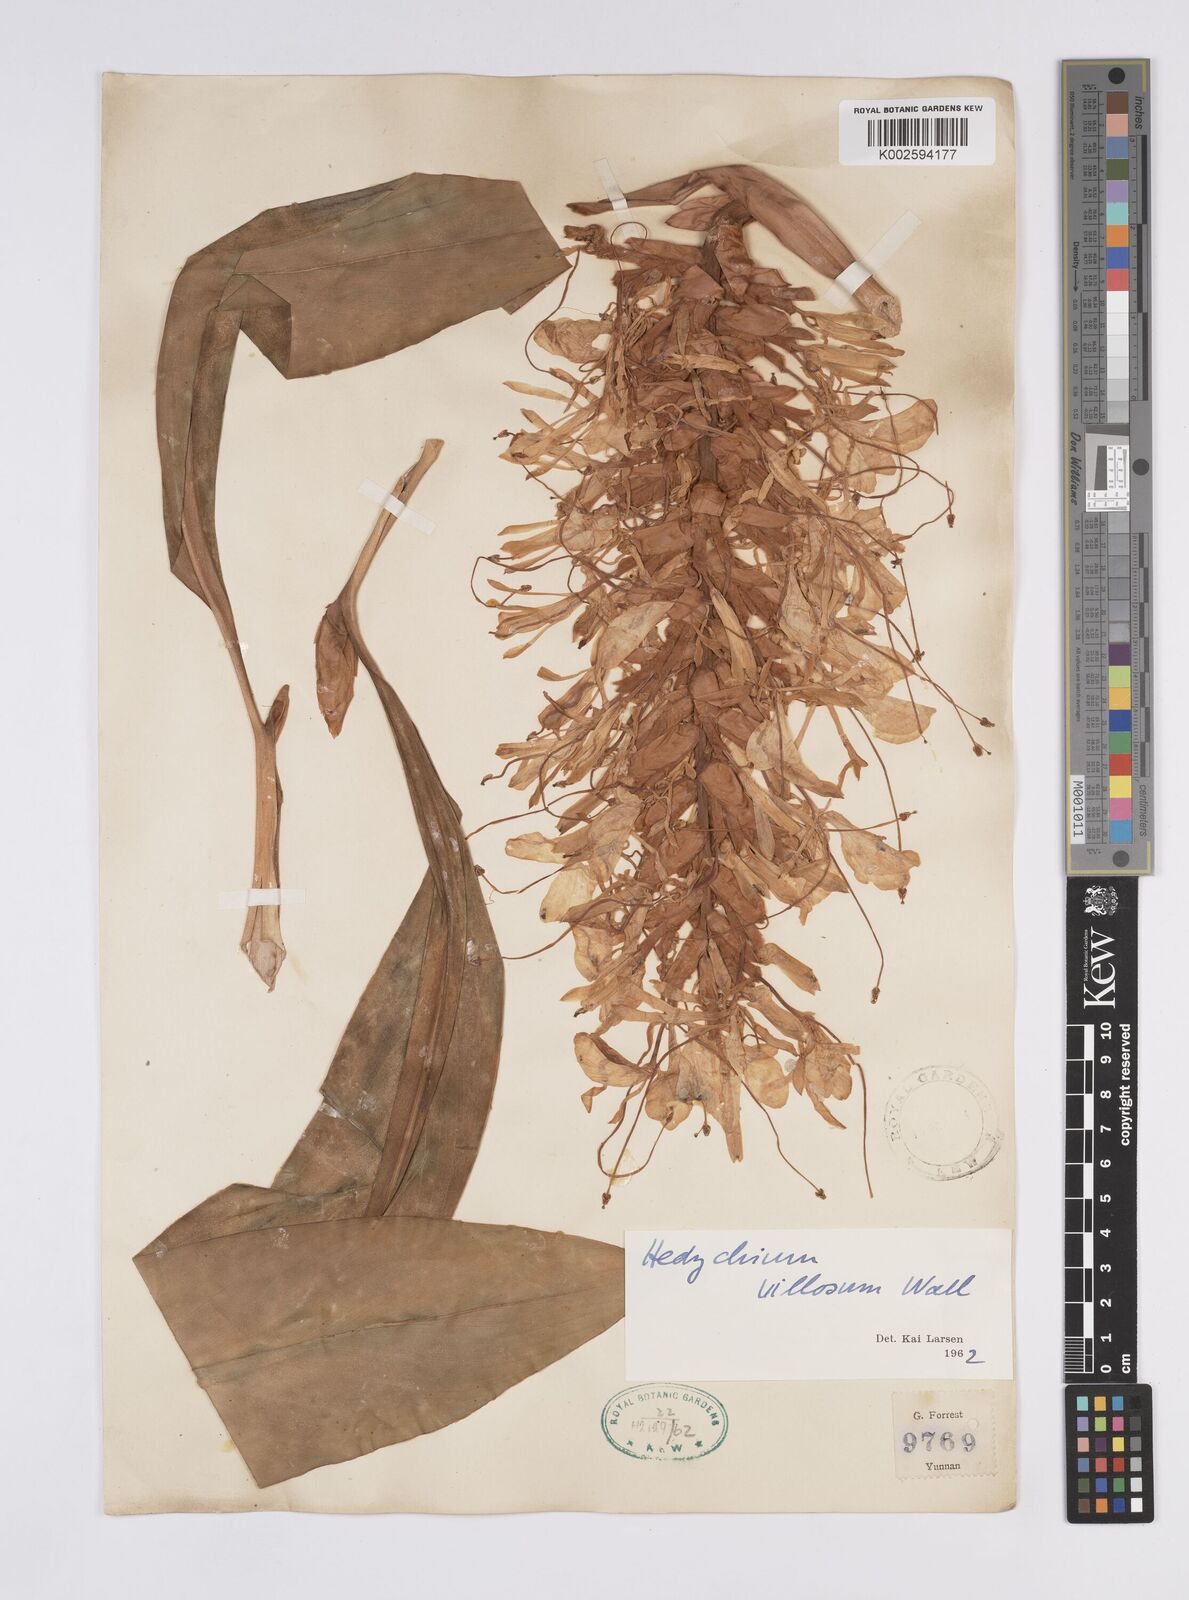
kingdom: Plantae
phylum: Tracheophyta
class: Liliopsida
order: Zingiberales
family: Zingiberaceae
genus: Hedychium
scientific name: Hedychium villosum
